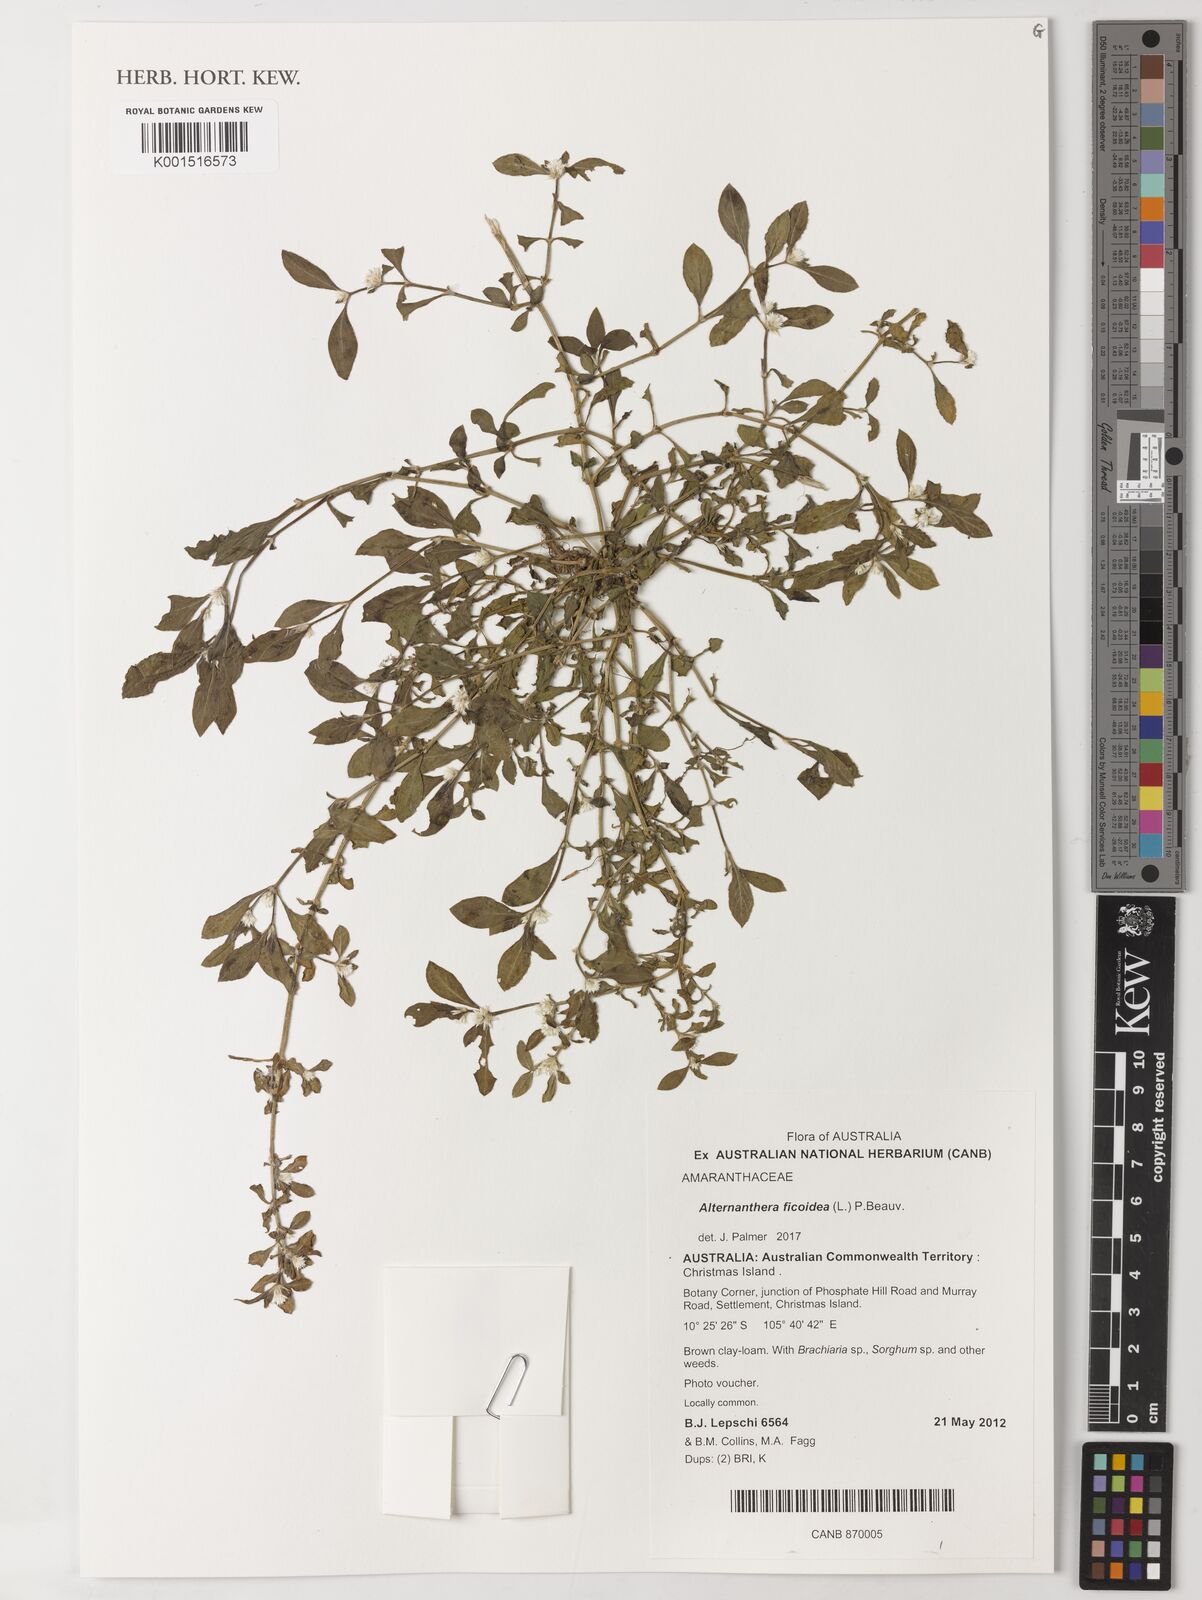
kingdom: Plantae
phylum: Tracheophyta
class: Magnoliopsida
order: Caryophyllales
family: Amaranthaceae
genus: Alternanthera
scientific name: Alternanthera ficoidea
